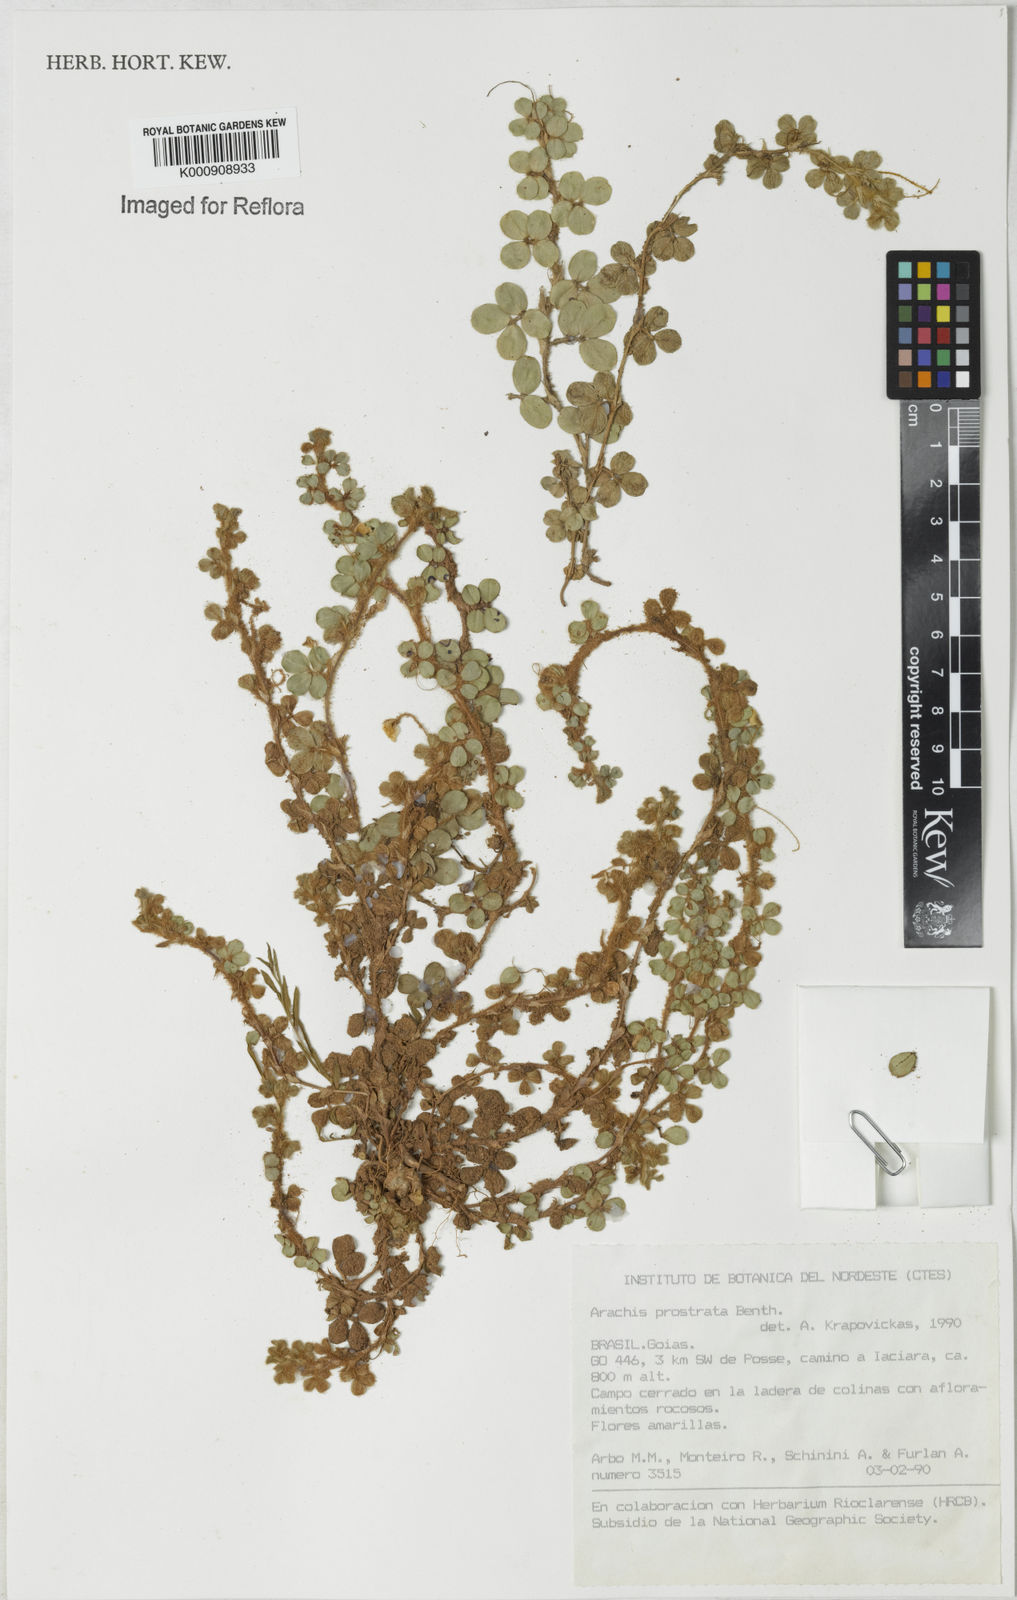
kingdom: Plantae
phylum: Tracheophyta
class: Magnoliopsida
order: Fabales
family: Fabaceae
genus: Arachis
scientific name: Arachis prostrata
